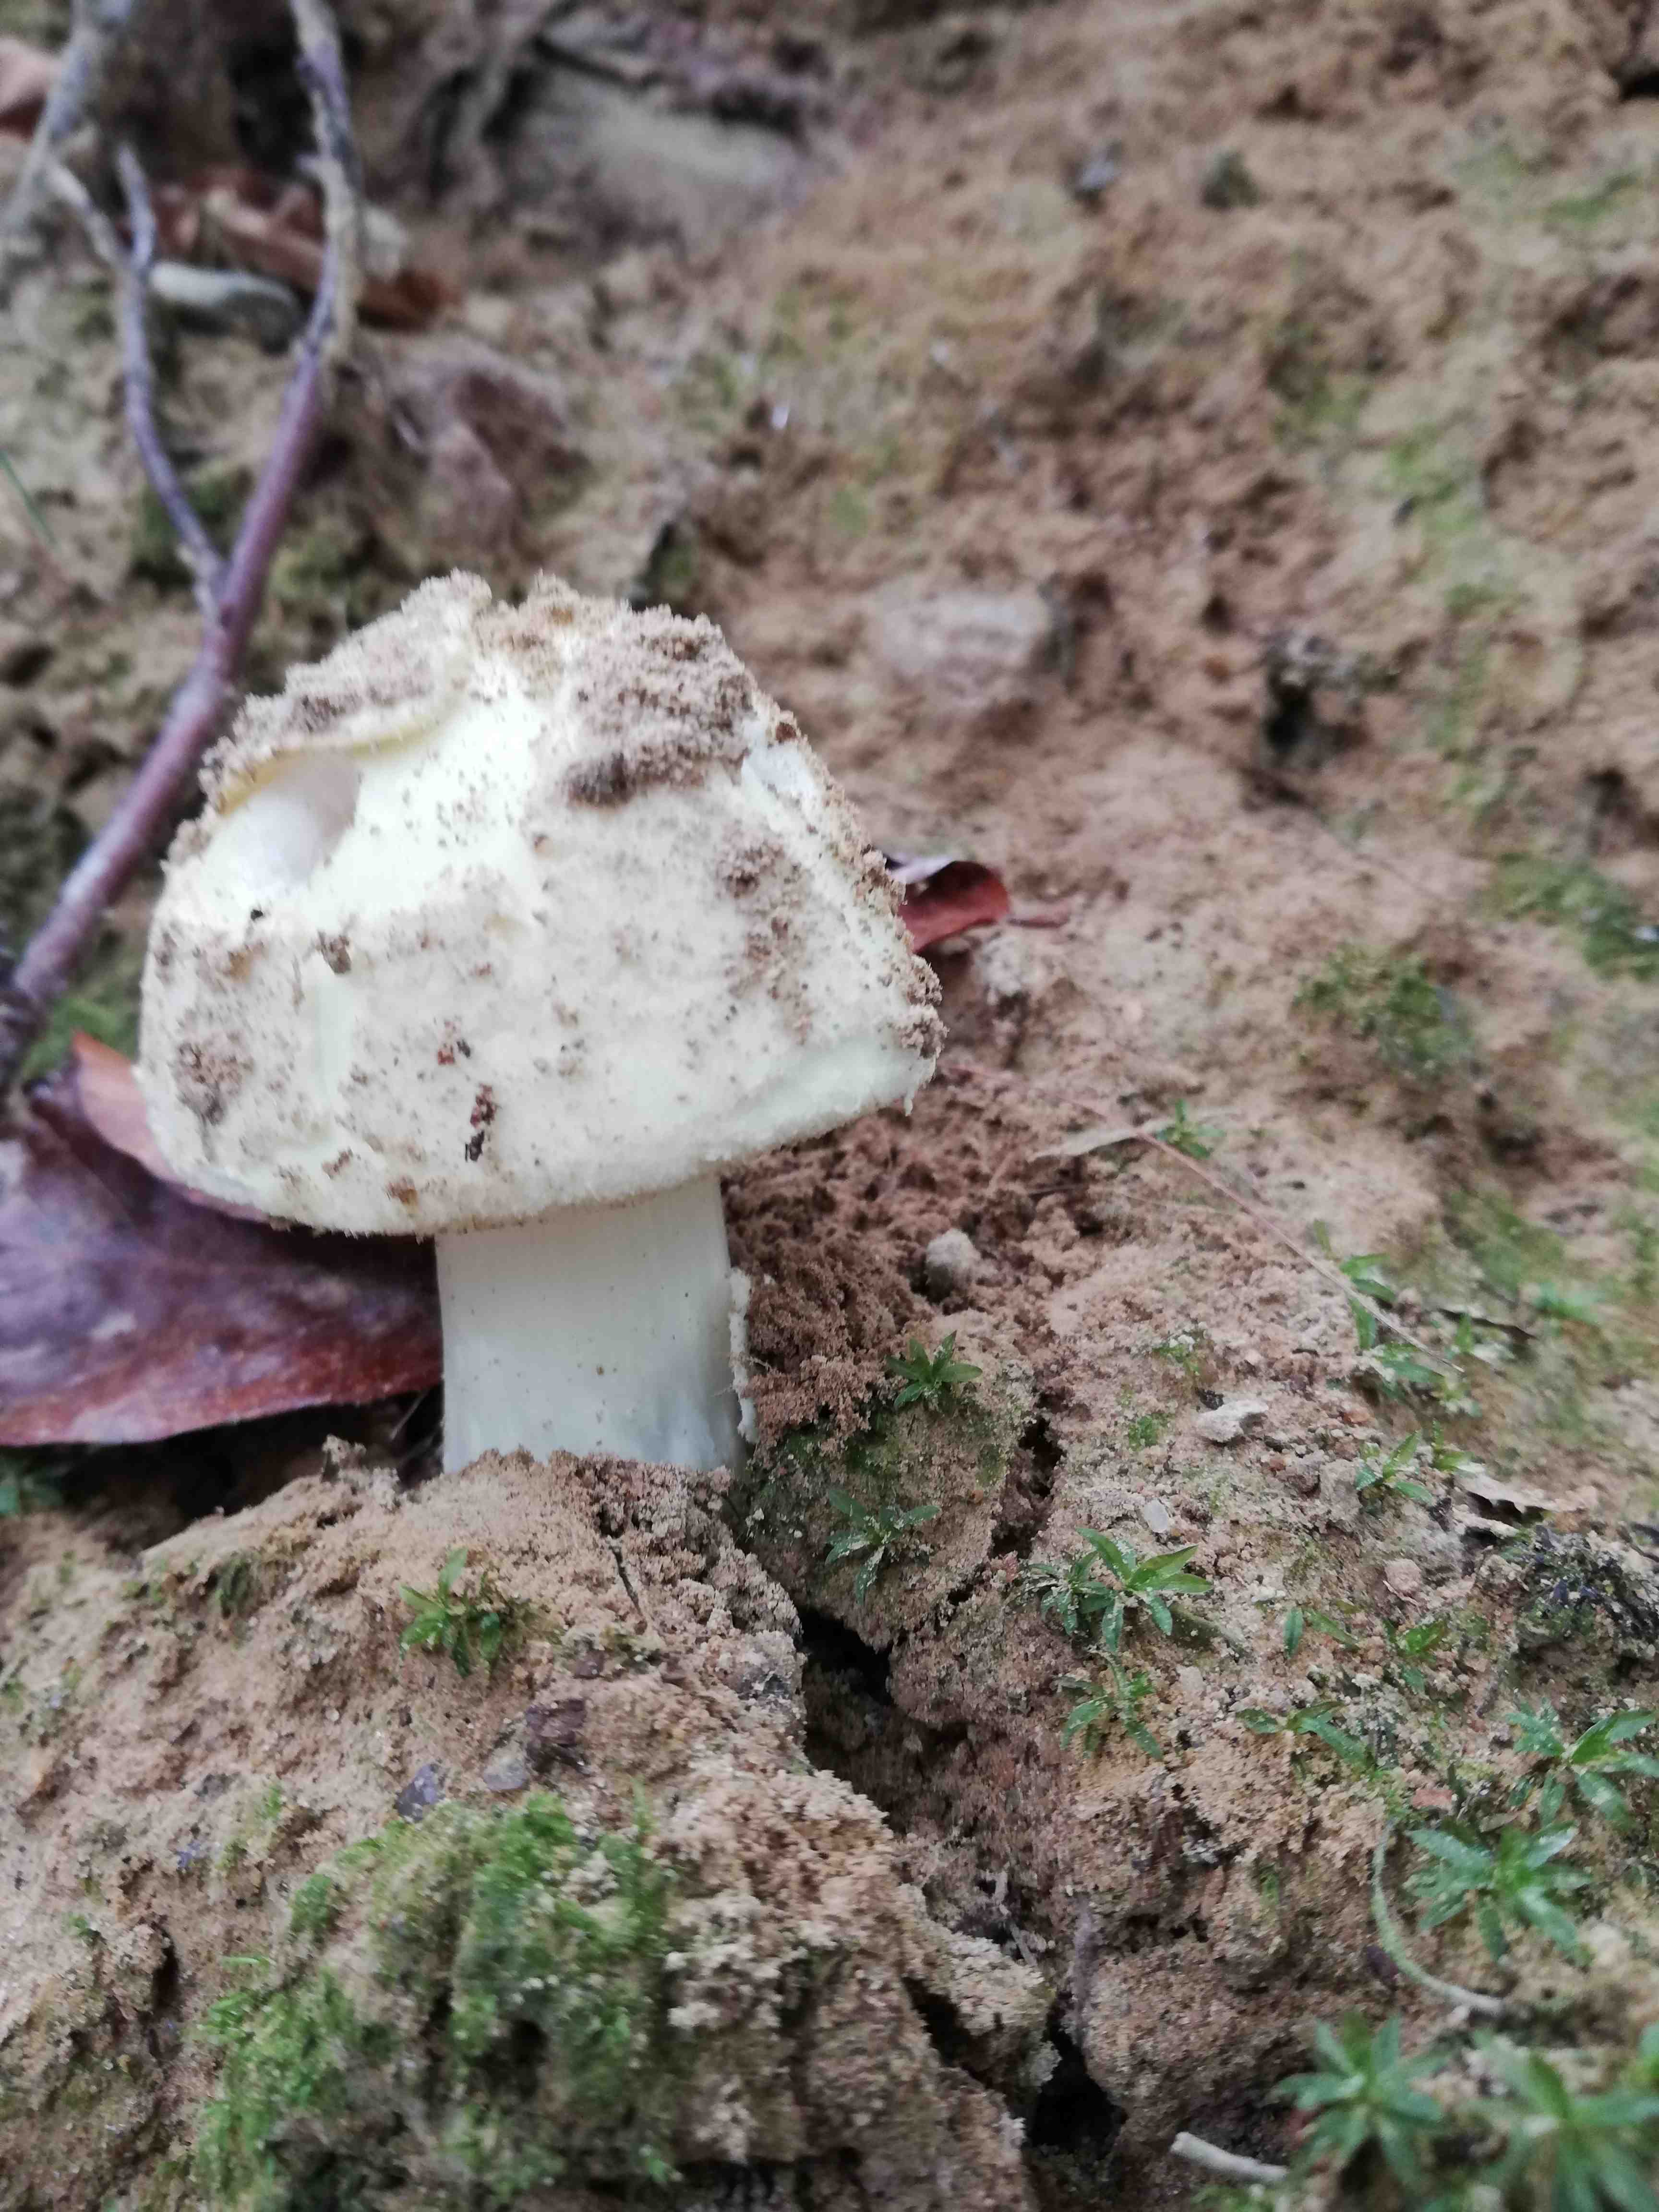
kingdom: Fungi
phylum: Basidiomycota
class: Agaricomycetes
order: Agaricales
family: Amanitaceae
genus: Amanita
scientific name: Amanita citrina
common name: kugleknoldet fluesvamp
